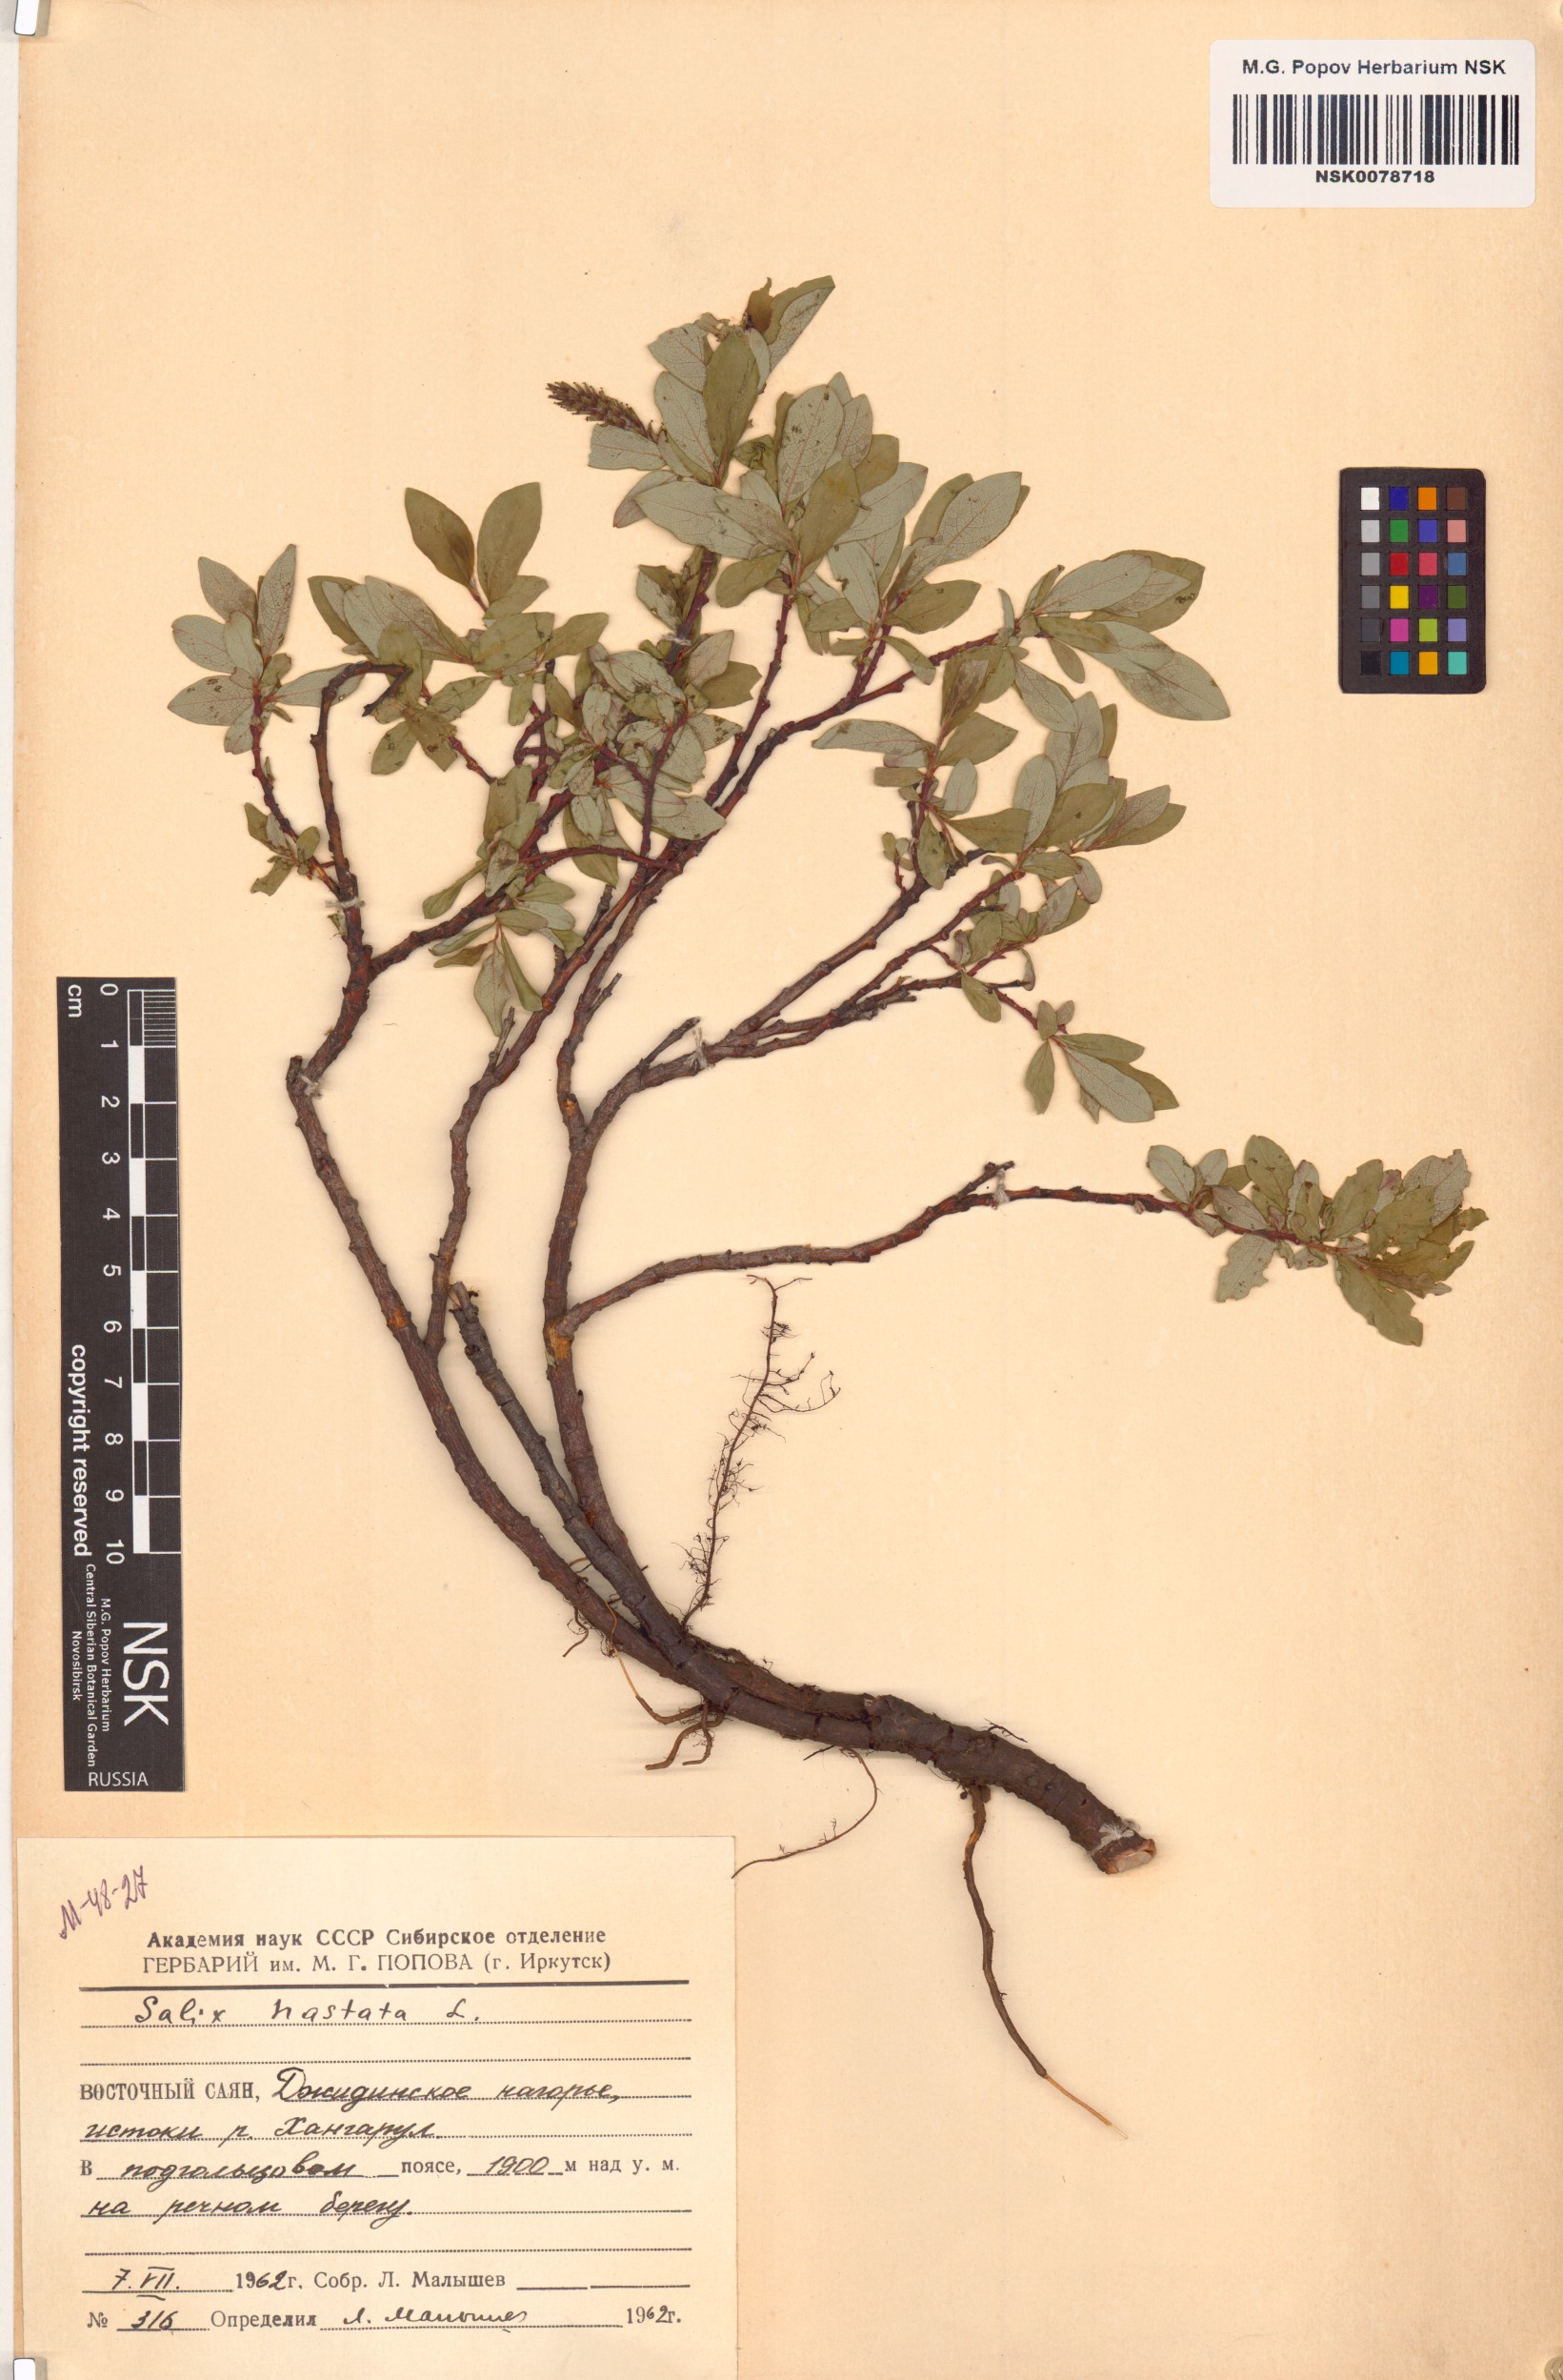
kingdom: Plantae
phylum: Tracheophyta
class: Magnoliopsida
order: Malpighiales
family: Salicaceae
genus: Salix
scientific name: Salix hastata
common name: Halberd willow
